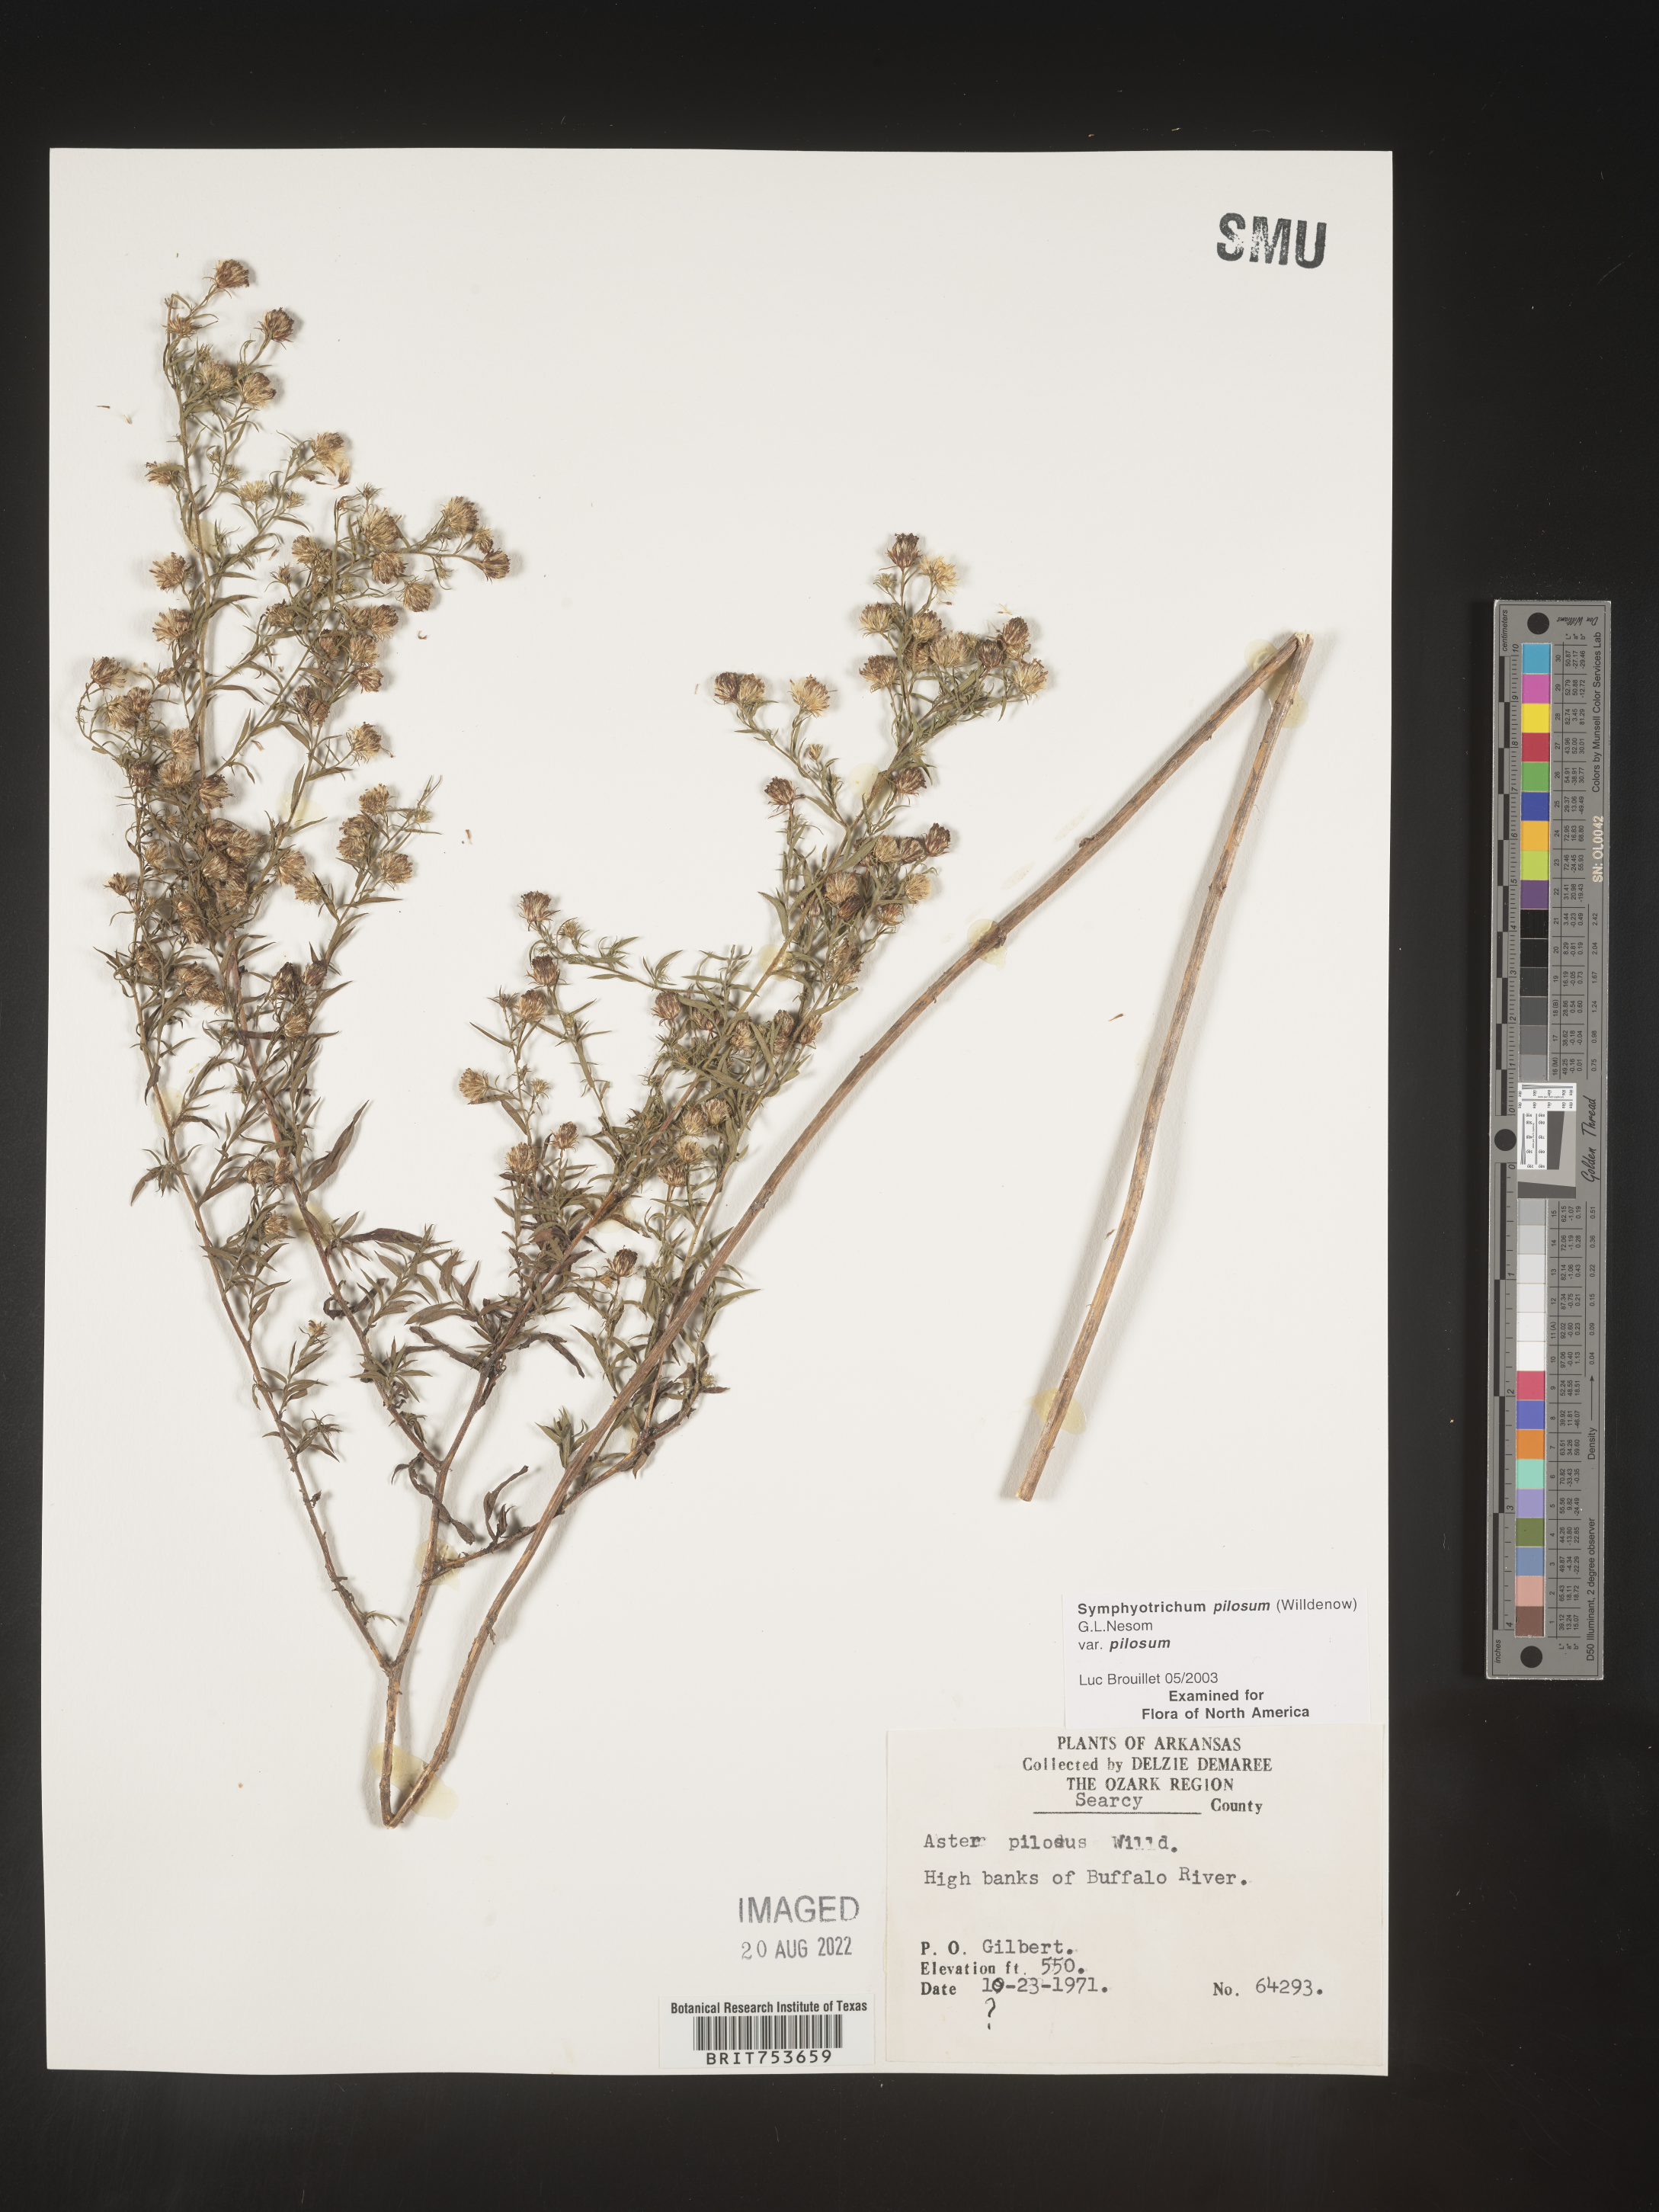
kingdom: Plantae
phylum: Tracheophyta
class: Magnoliopsida
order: Asterales
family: Asteraceae
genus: Symphyotrichum
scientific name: Symphyotrichum pilosum
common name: Awl aster
